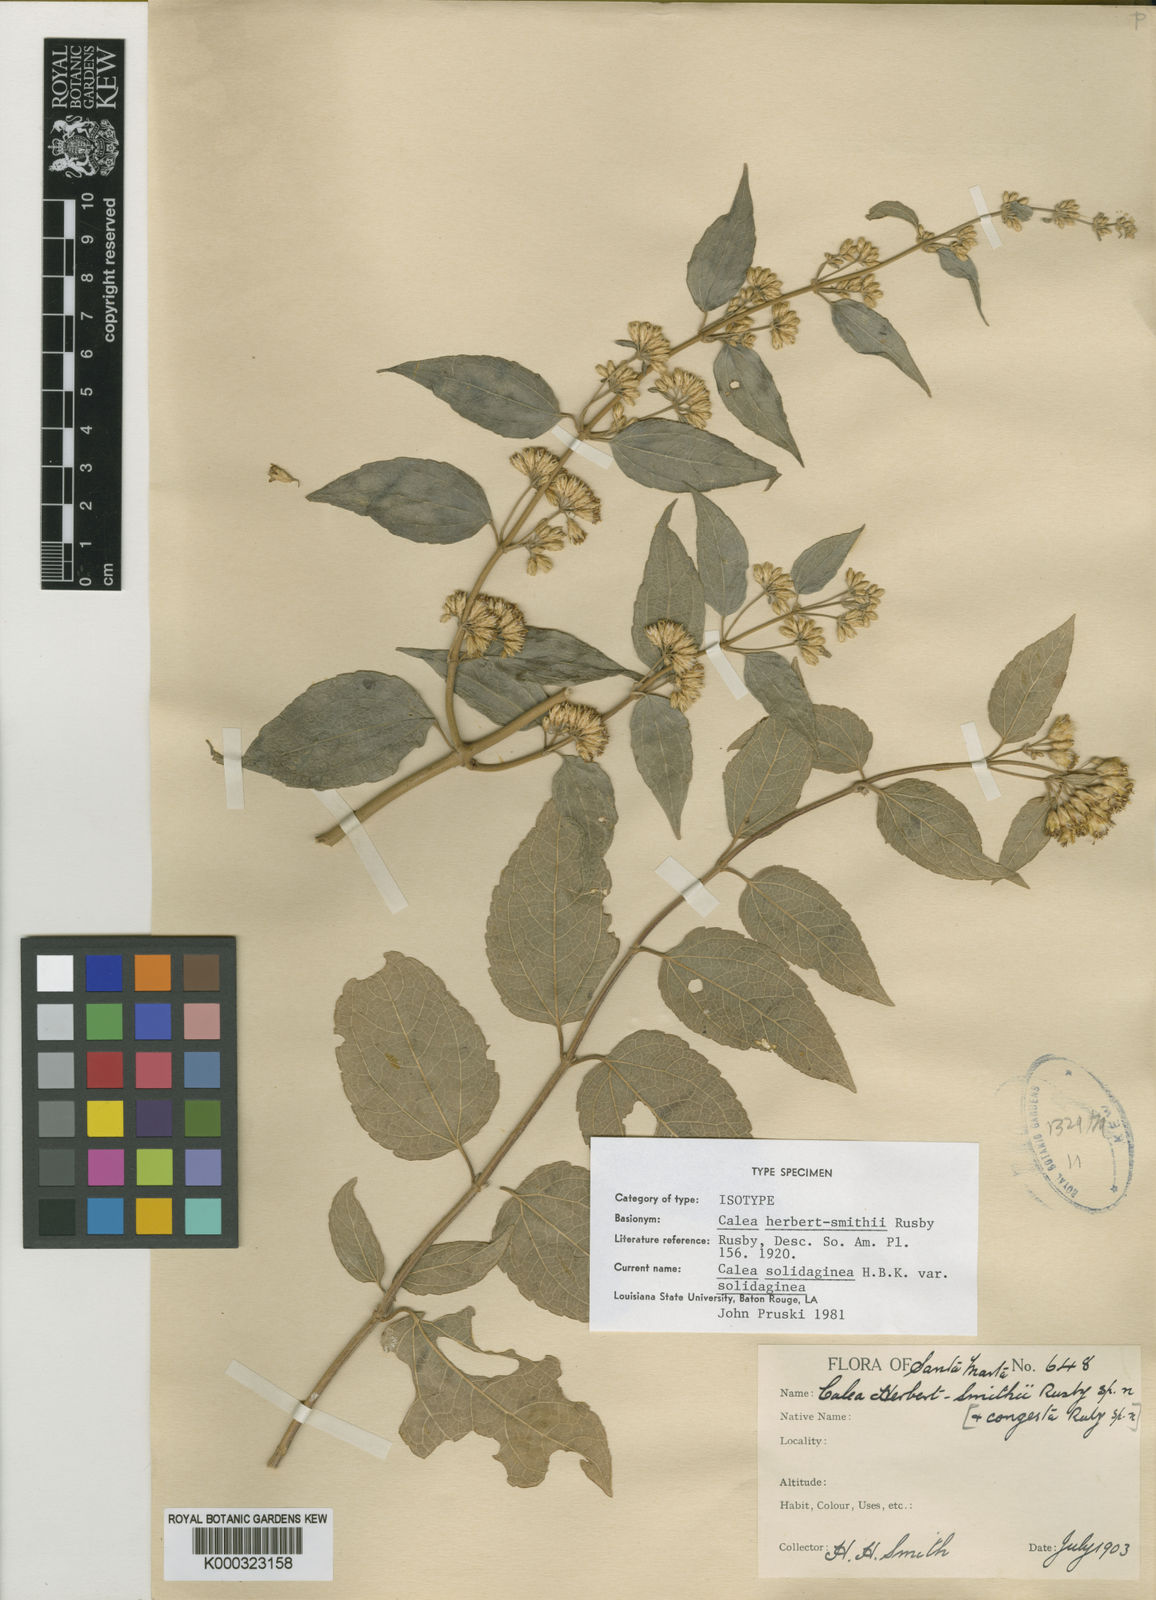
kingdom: Plantae
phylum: Tracheophyta
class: Magnoliopsida
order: Asterales
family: Asteraceae
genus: Calea
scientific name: Calea solidaginea
